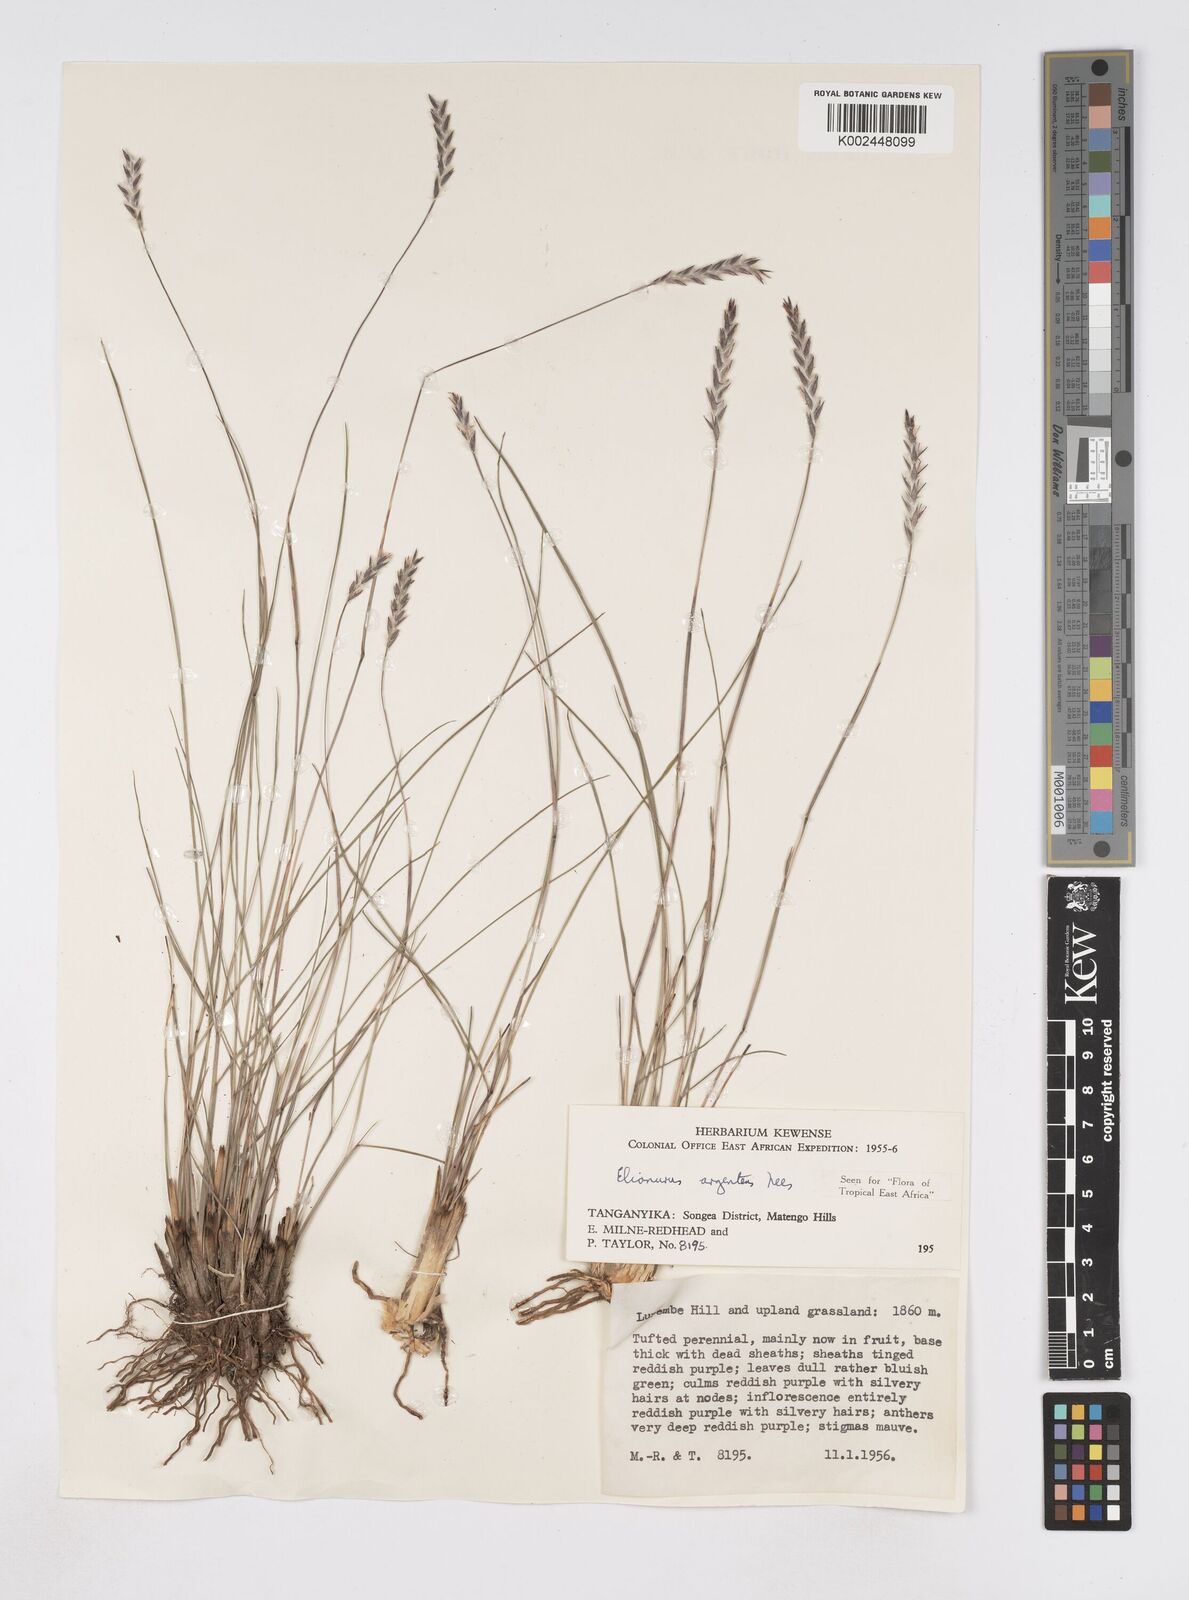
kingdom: Plantae
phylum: Tracheophyta
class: Liliopsida
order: Poales
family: Poaceae
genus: Elionurus
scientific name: Elionurus muticus
